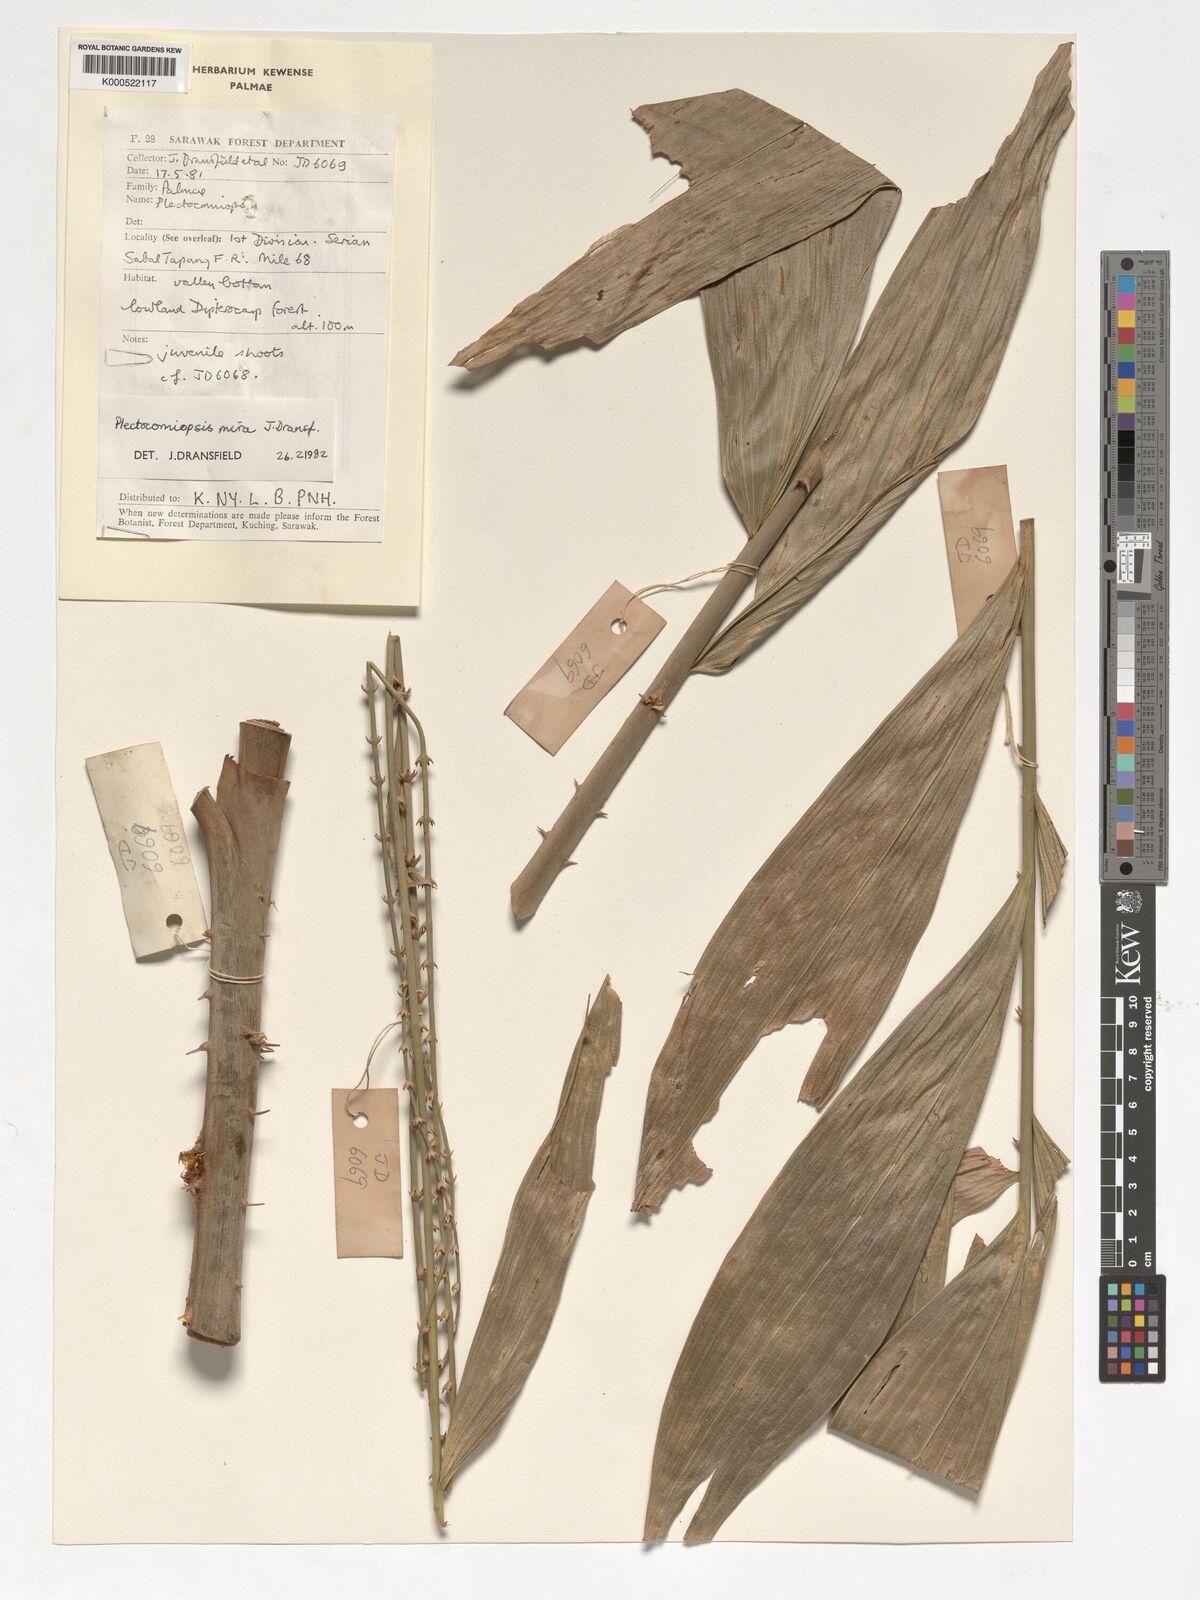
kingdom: Plantae
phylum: Tracheophyta
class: Liliopsida
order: Arecales
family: Arecaceae
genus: Plectocomiopsis
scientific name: Plectocomiopsis mira
